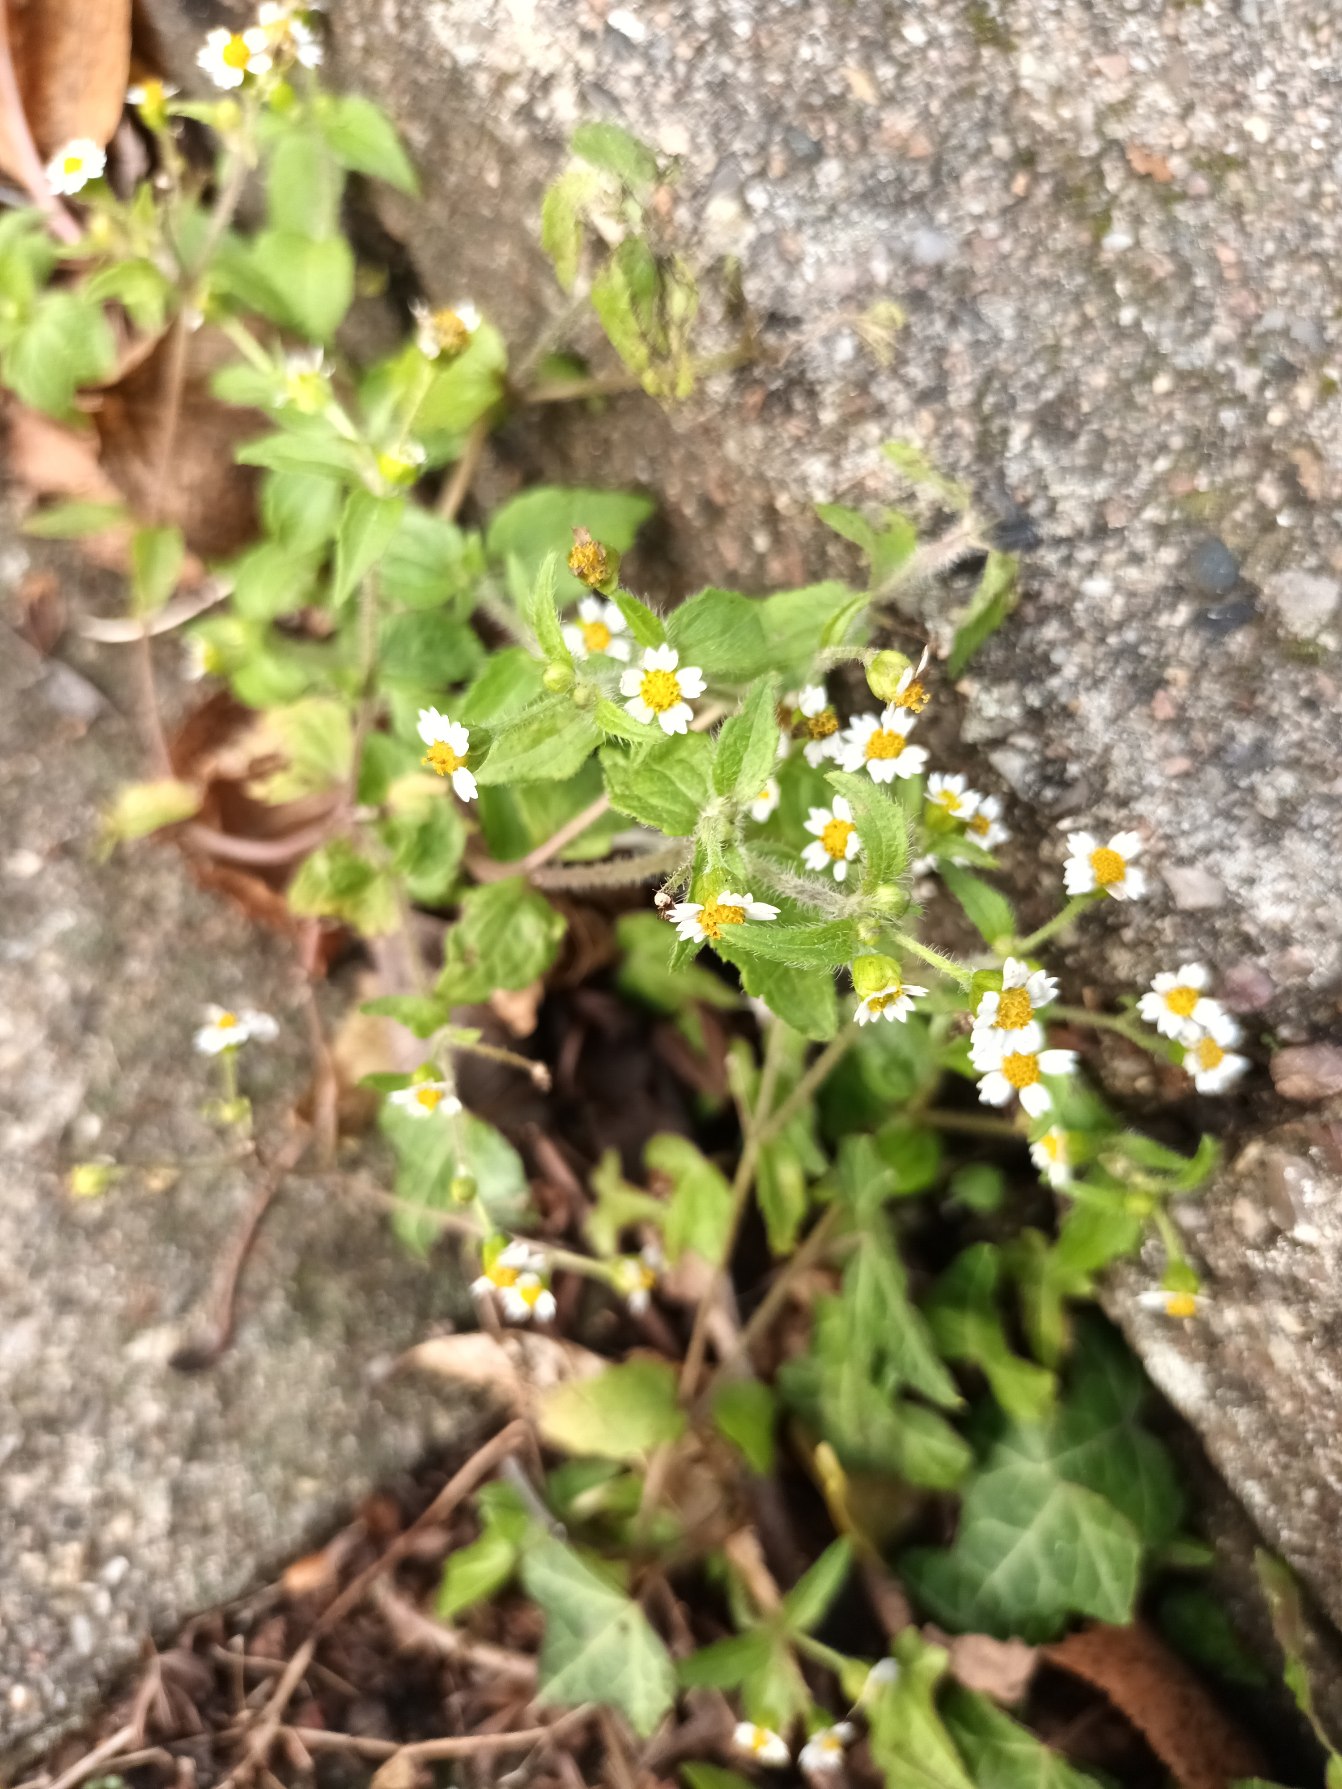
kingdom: Plantae
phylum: Tracheophyta
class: Magnoliopsida
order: Asterales
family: Asteraceae
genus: Galinsoga
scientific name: Galinsoga quadriradiata
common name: Kirtel-kortstråle
